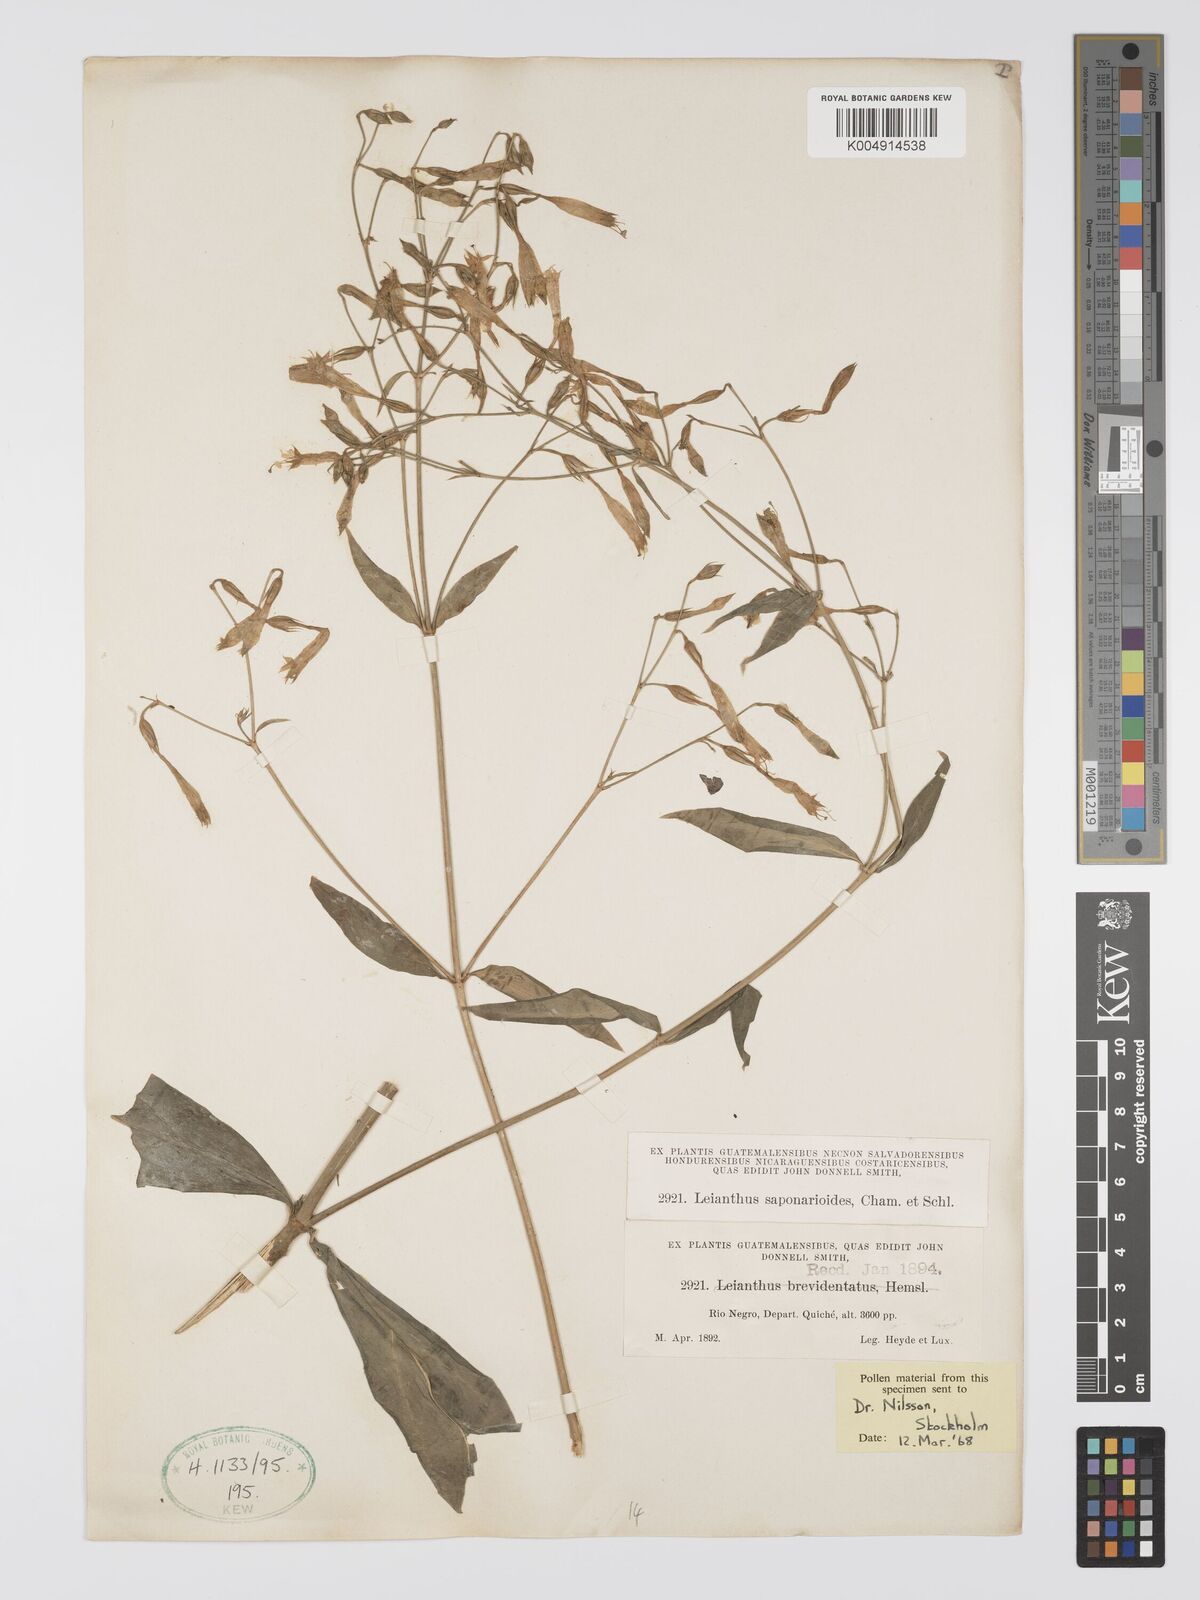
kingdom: Plantae
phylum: Tracheophyta
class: Magnoliopsida
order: Gentianales
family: Gentianaceae
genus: Lisianthus
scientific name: Lisianthus saponarioides
